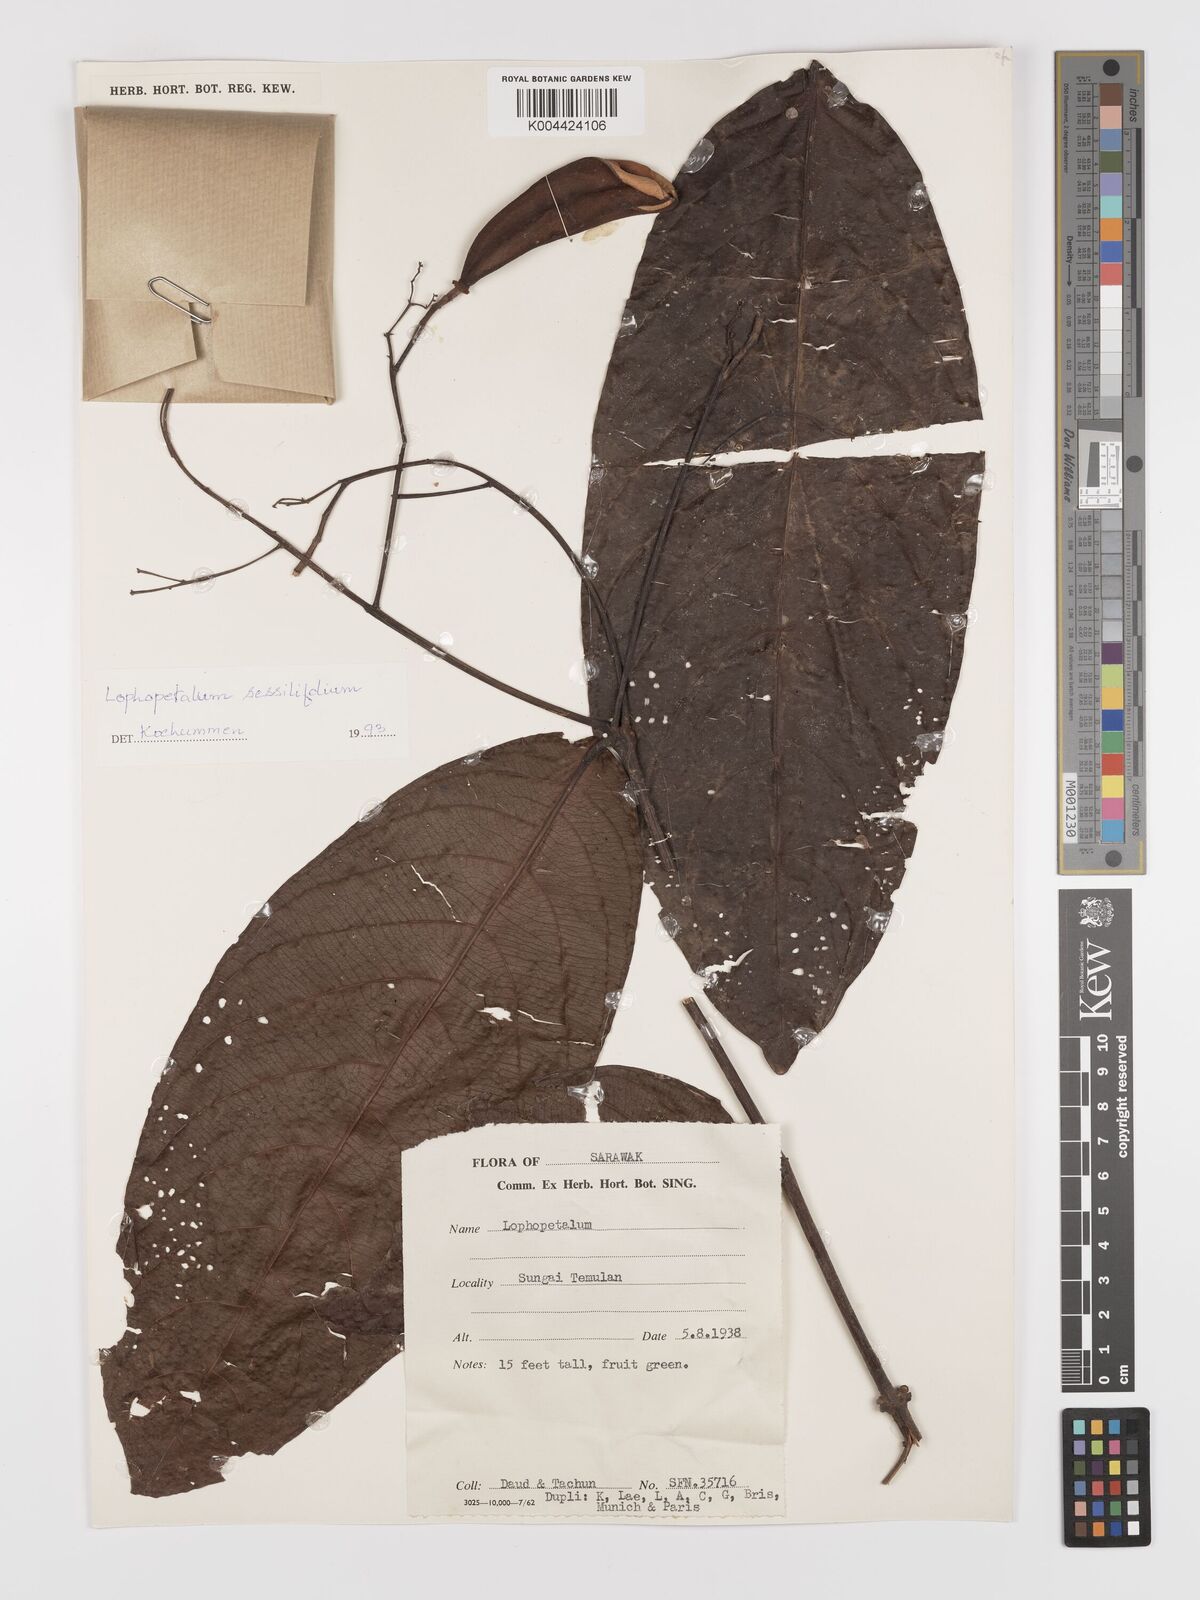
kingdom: Plantae
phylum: Tracheophyta
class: Magnoliopsida
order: Celastrales
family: Celastraceae
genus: Lophopetalum
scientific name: Lophopetalum sessilifolium
